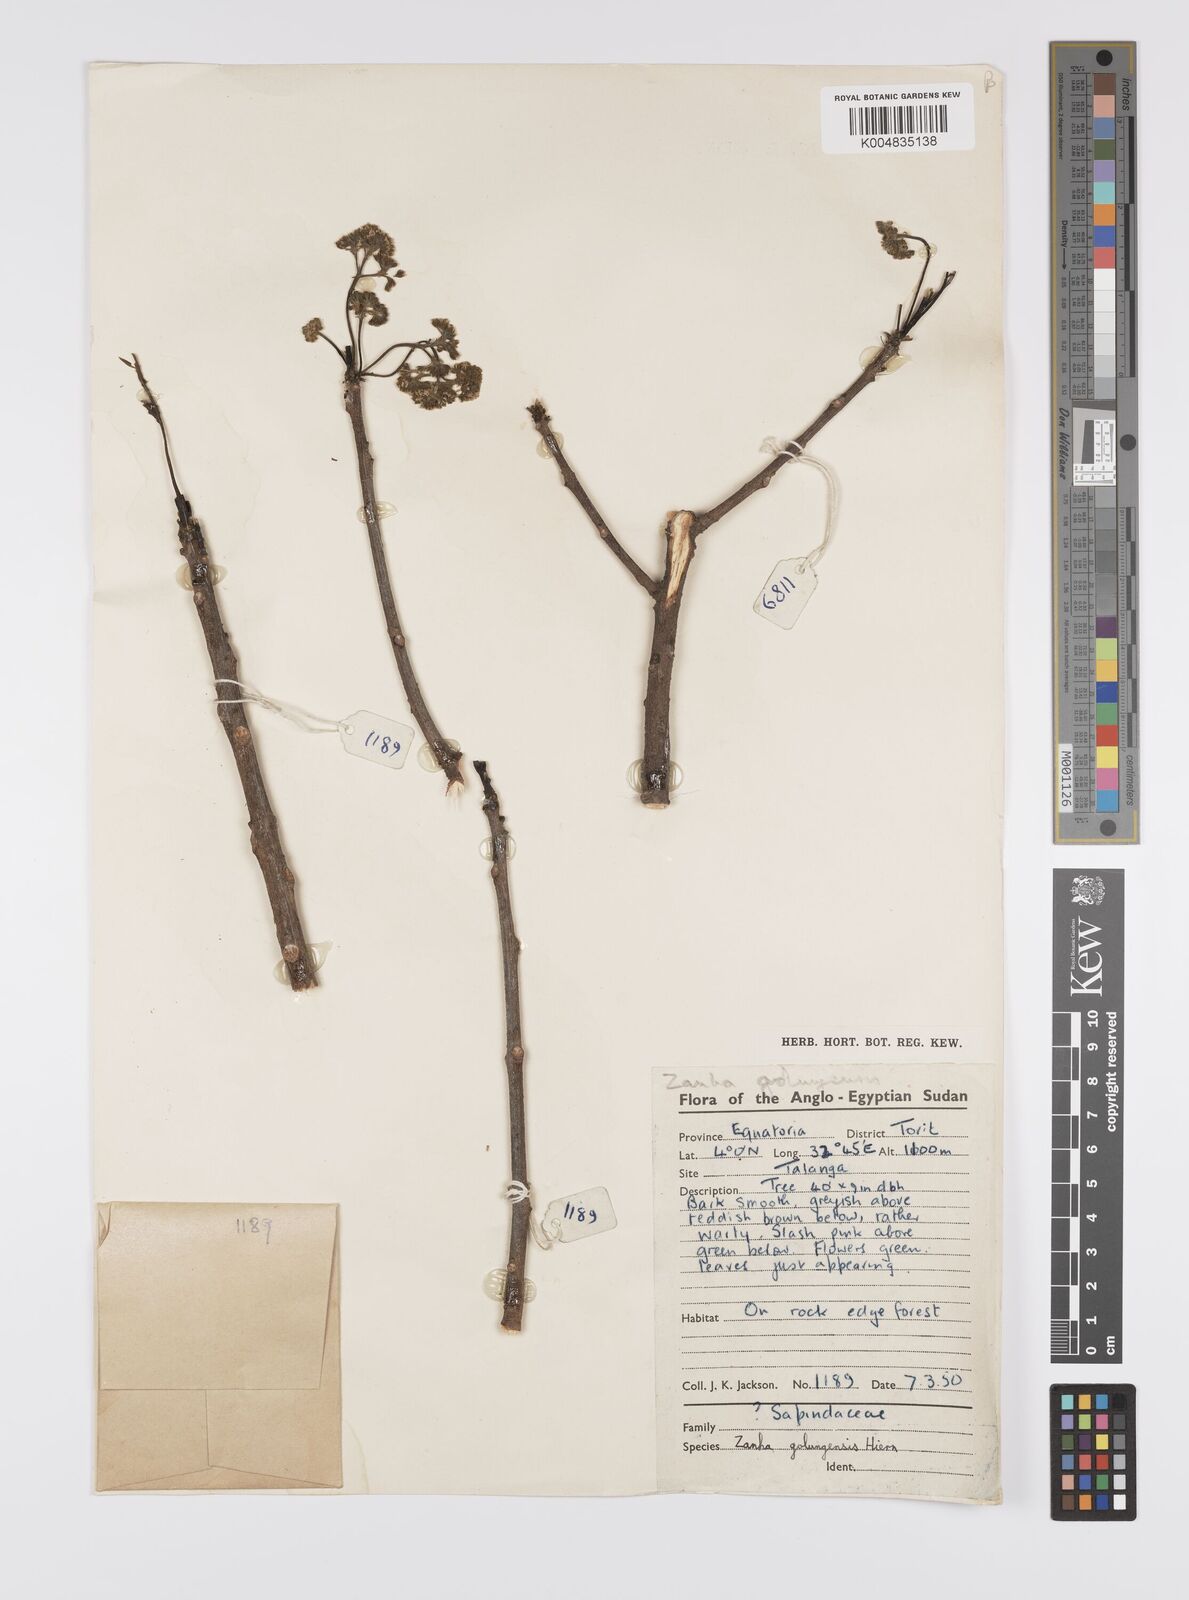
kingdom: Plantae
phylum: Tracheophyta
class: Magnoliopsida
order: Sapindales
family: Sapindaceae
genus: Zanha
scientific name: Zanha golungensis
